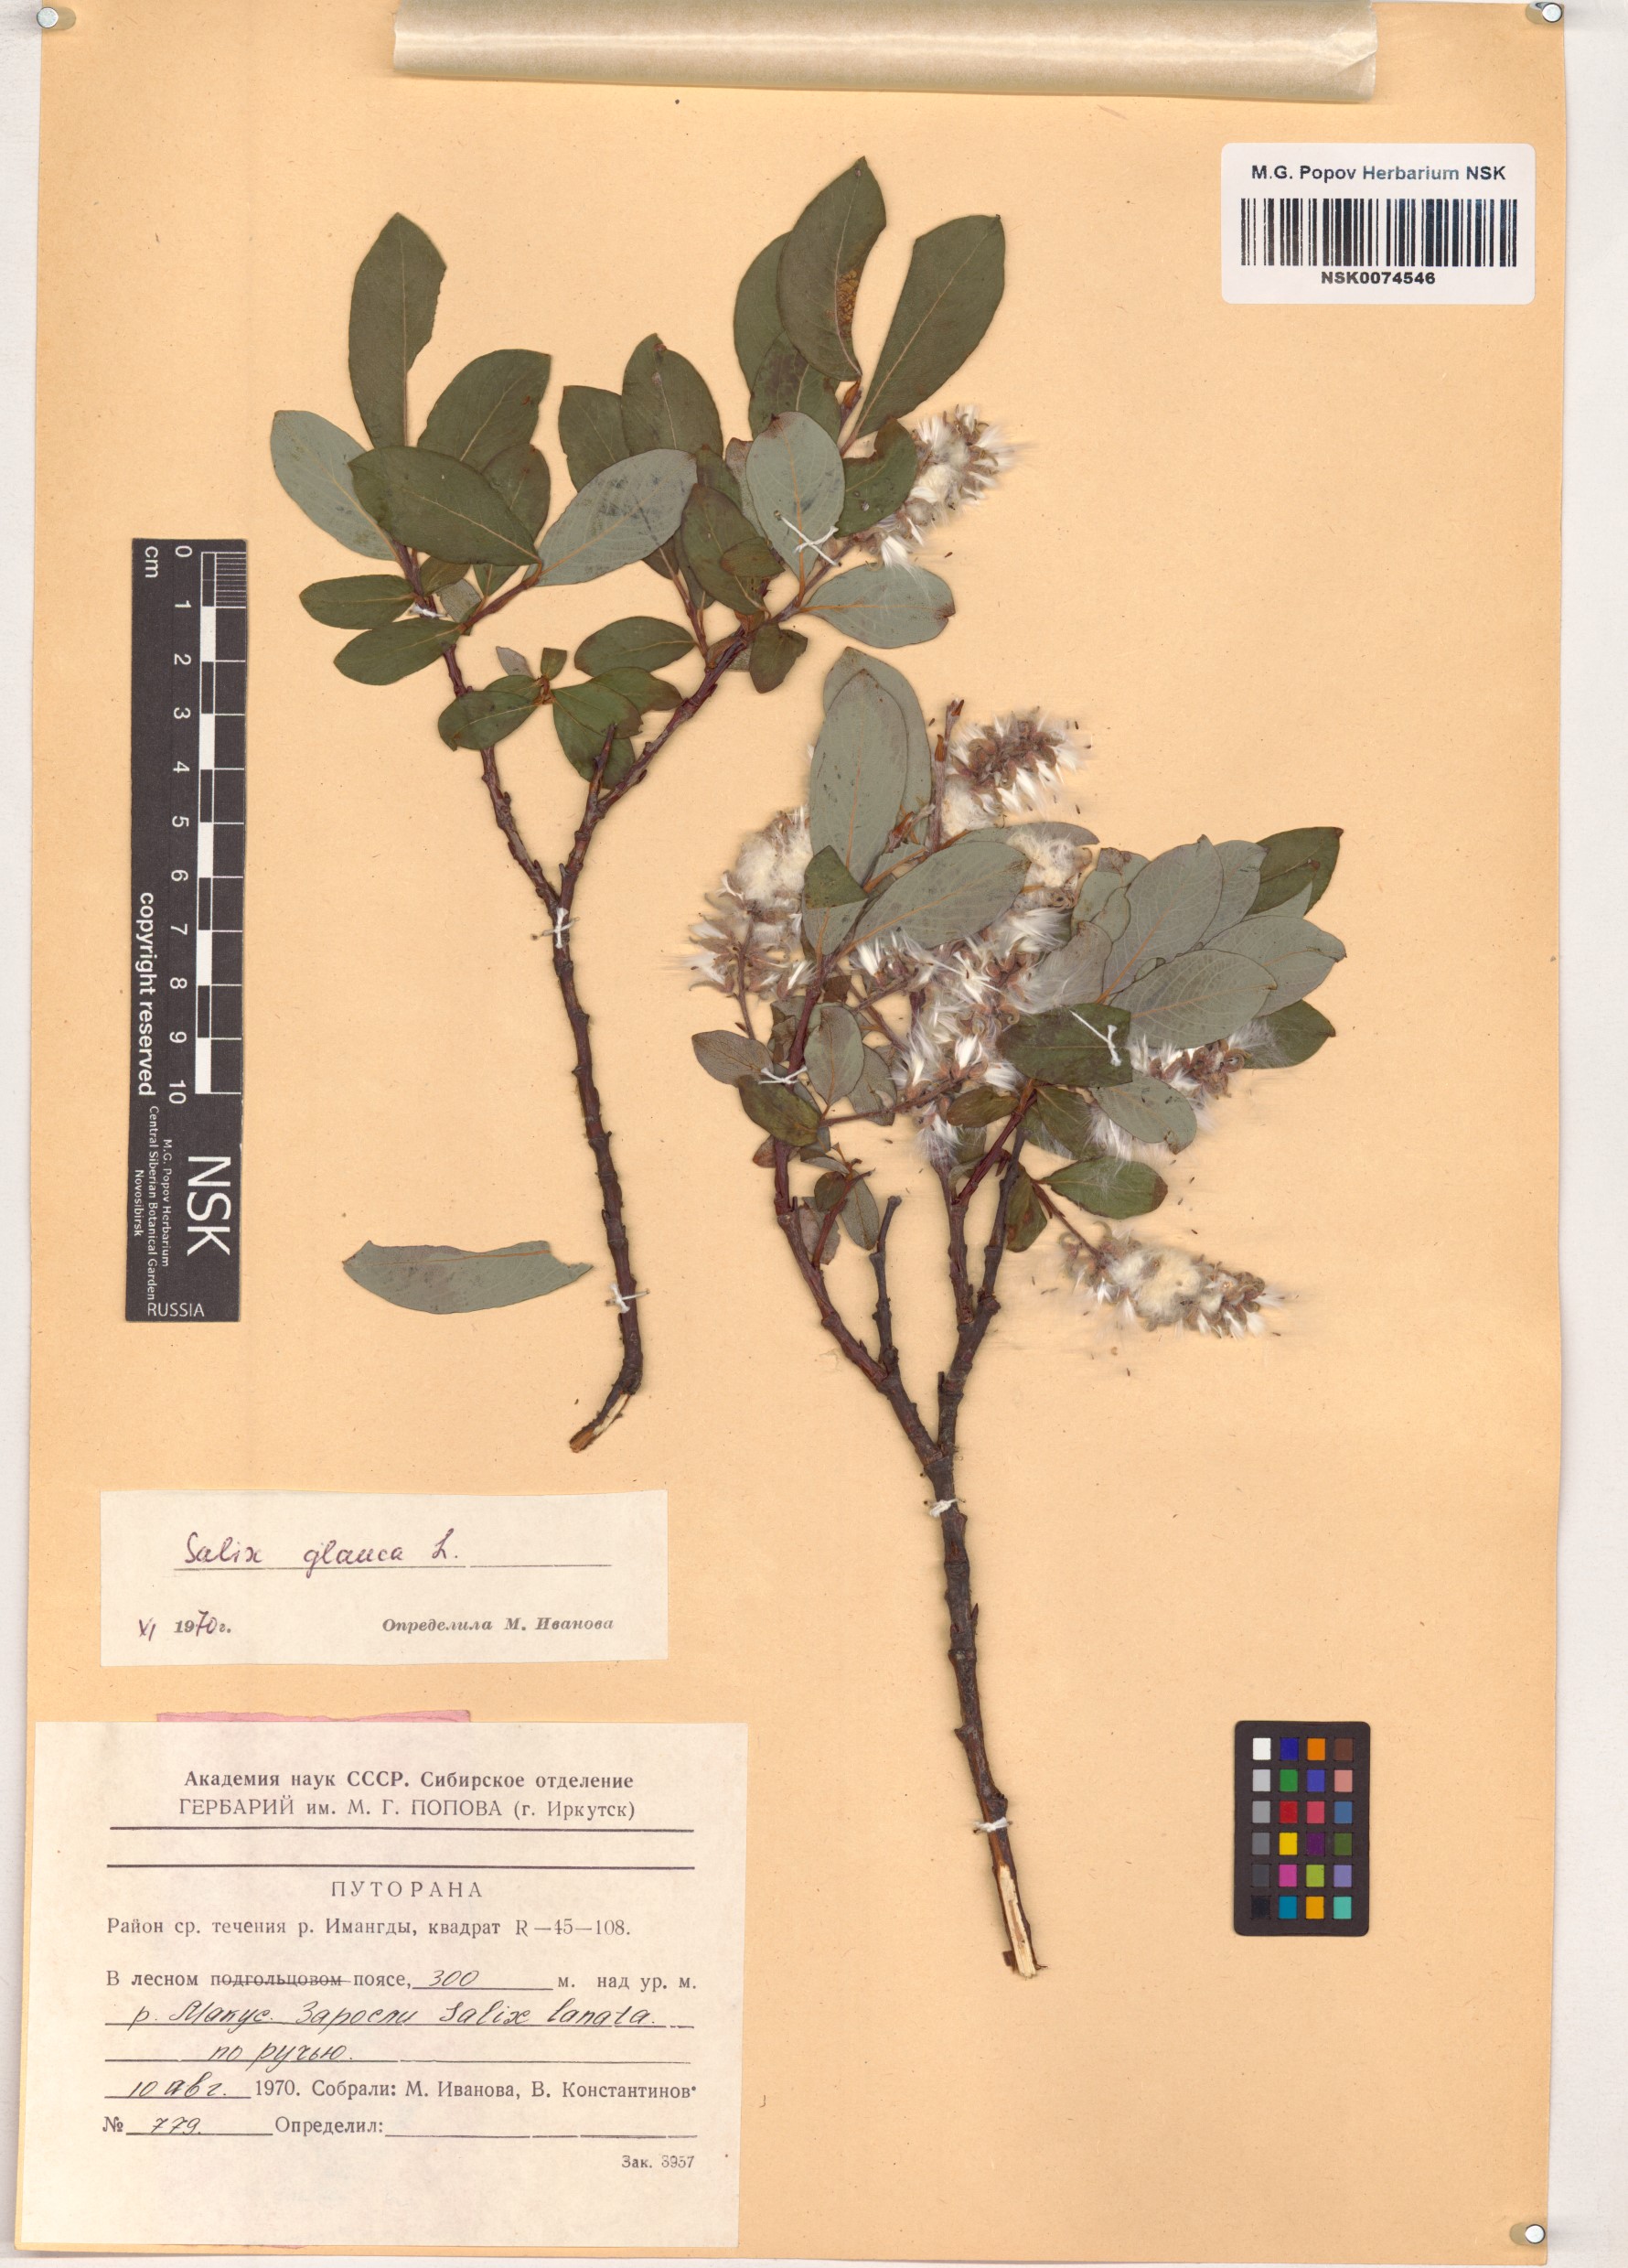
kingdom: Plantae
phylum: Tracheophyta
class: Magnoliopsida
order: Malpighiales
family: Salicaceae
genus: Salix
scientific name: Salix glauca
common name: Glaucous willow
